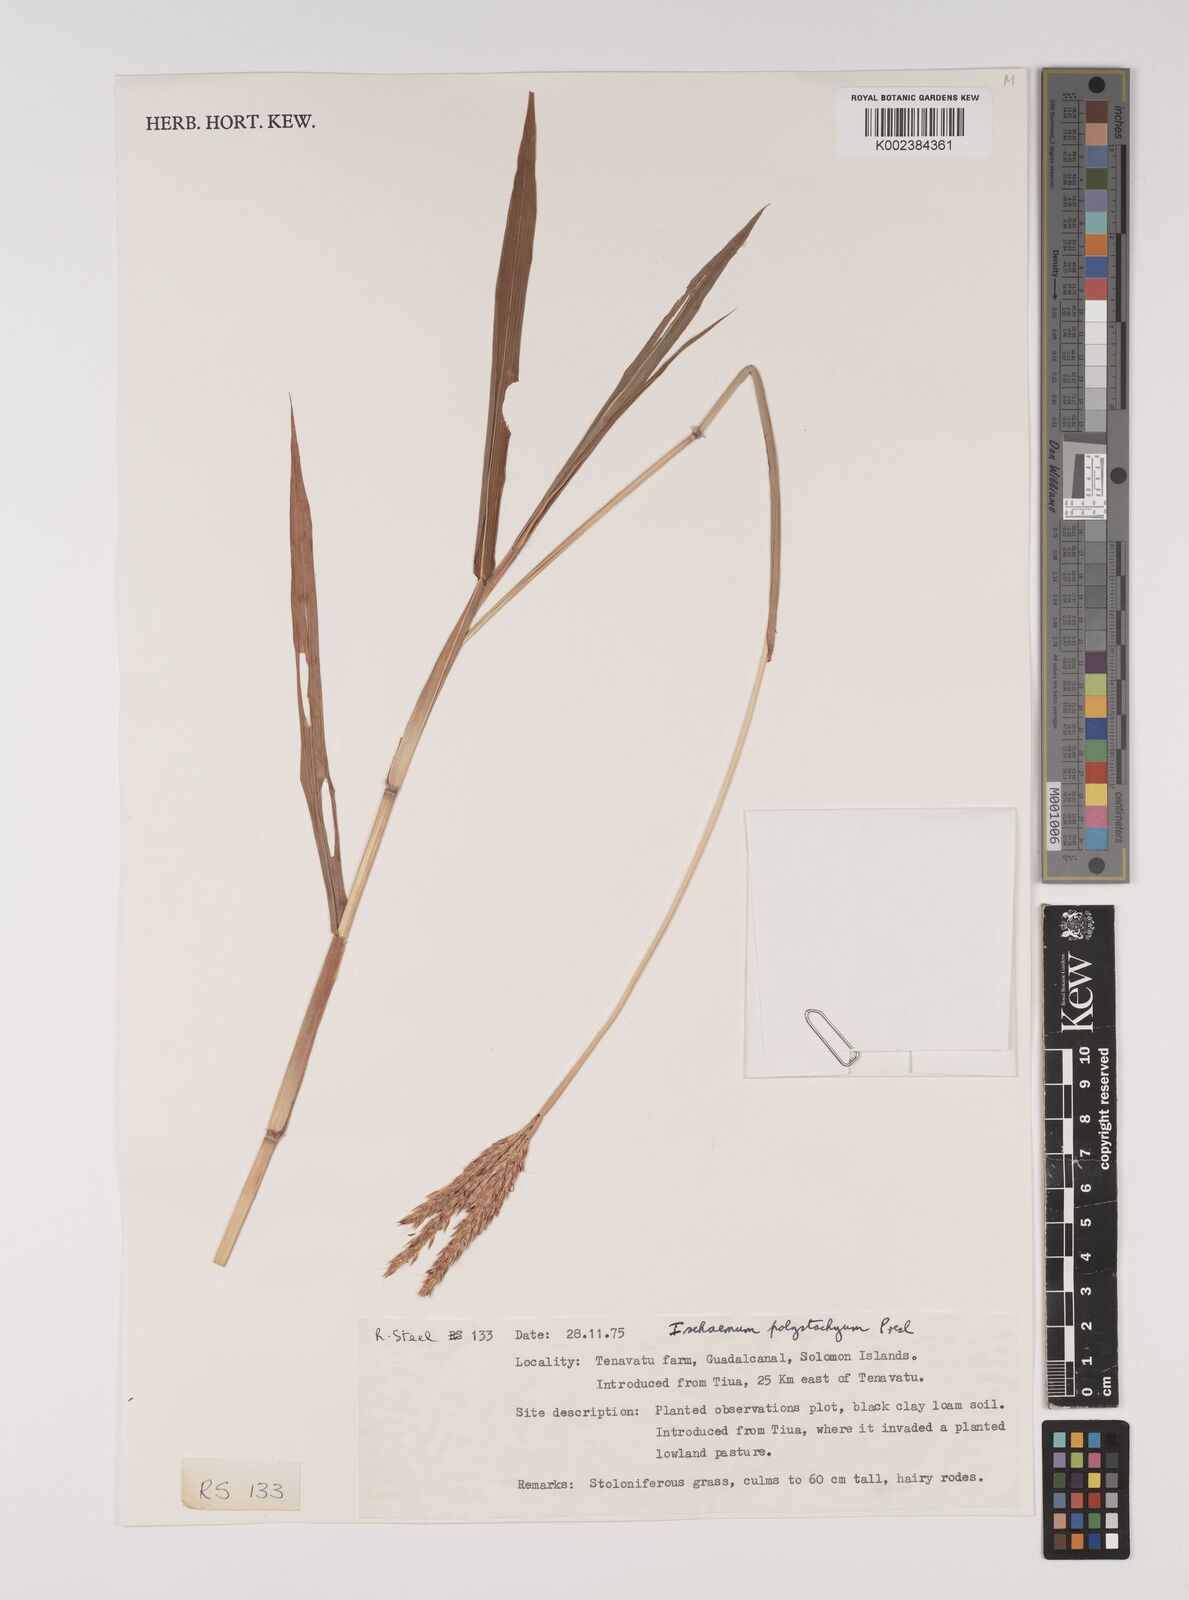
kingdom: Plantae
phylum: Tracheophyta
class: Liliopsida
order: Poales
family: Poaceae
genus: Ischaemum
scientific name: Ischaemum polystachyum
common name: Paddle grass
